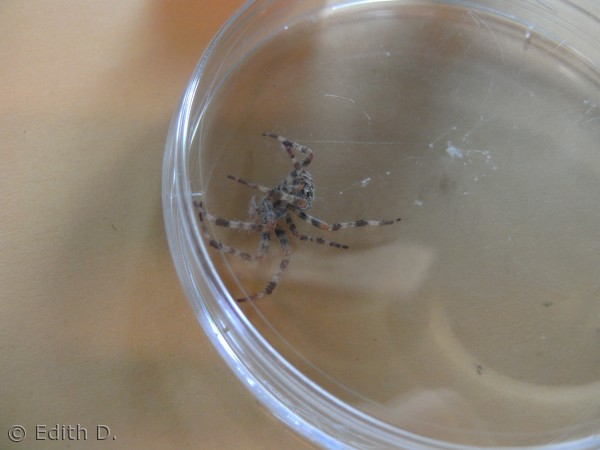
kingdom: Animalia
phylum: Arthropoda
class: Arachnida
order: Araneae
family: Araneidae
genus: Araneus
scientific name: Araneus diadematus
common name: Korsedderkop
